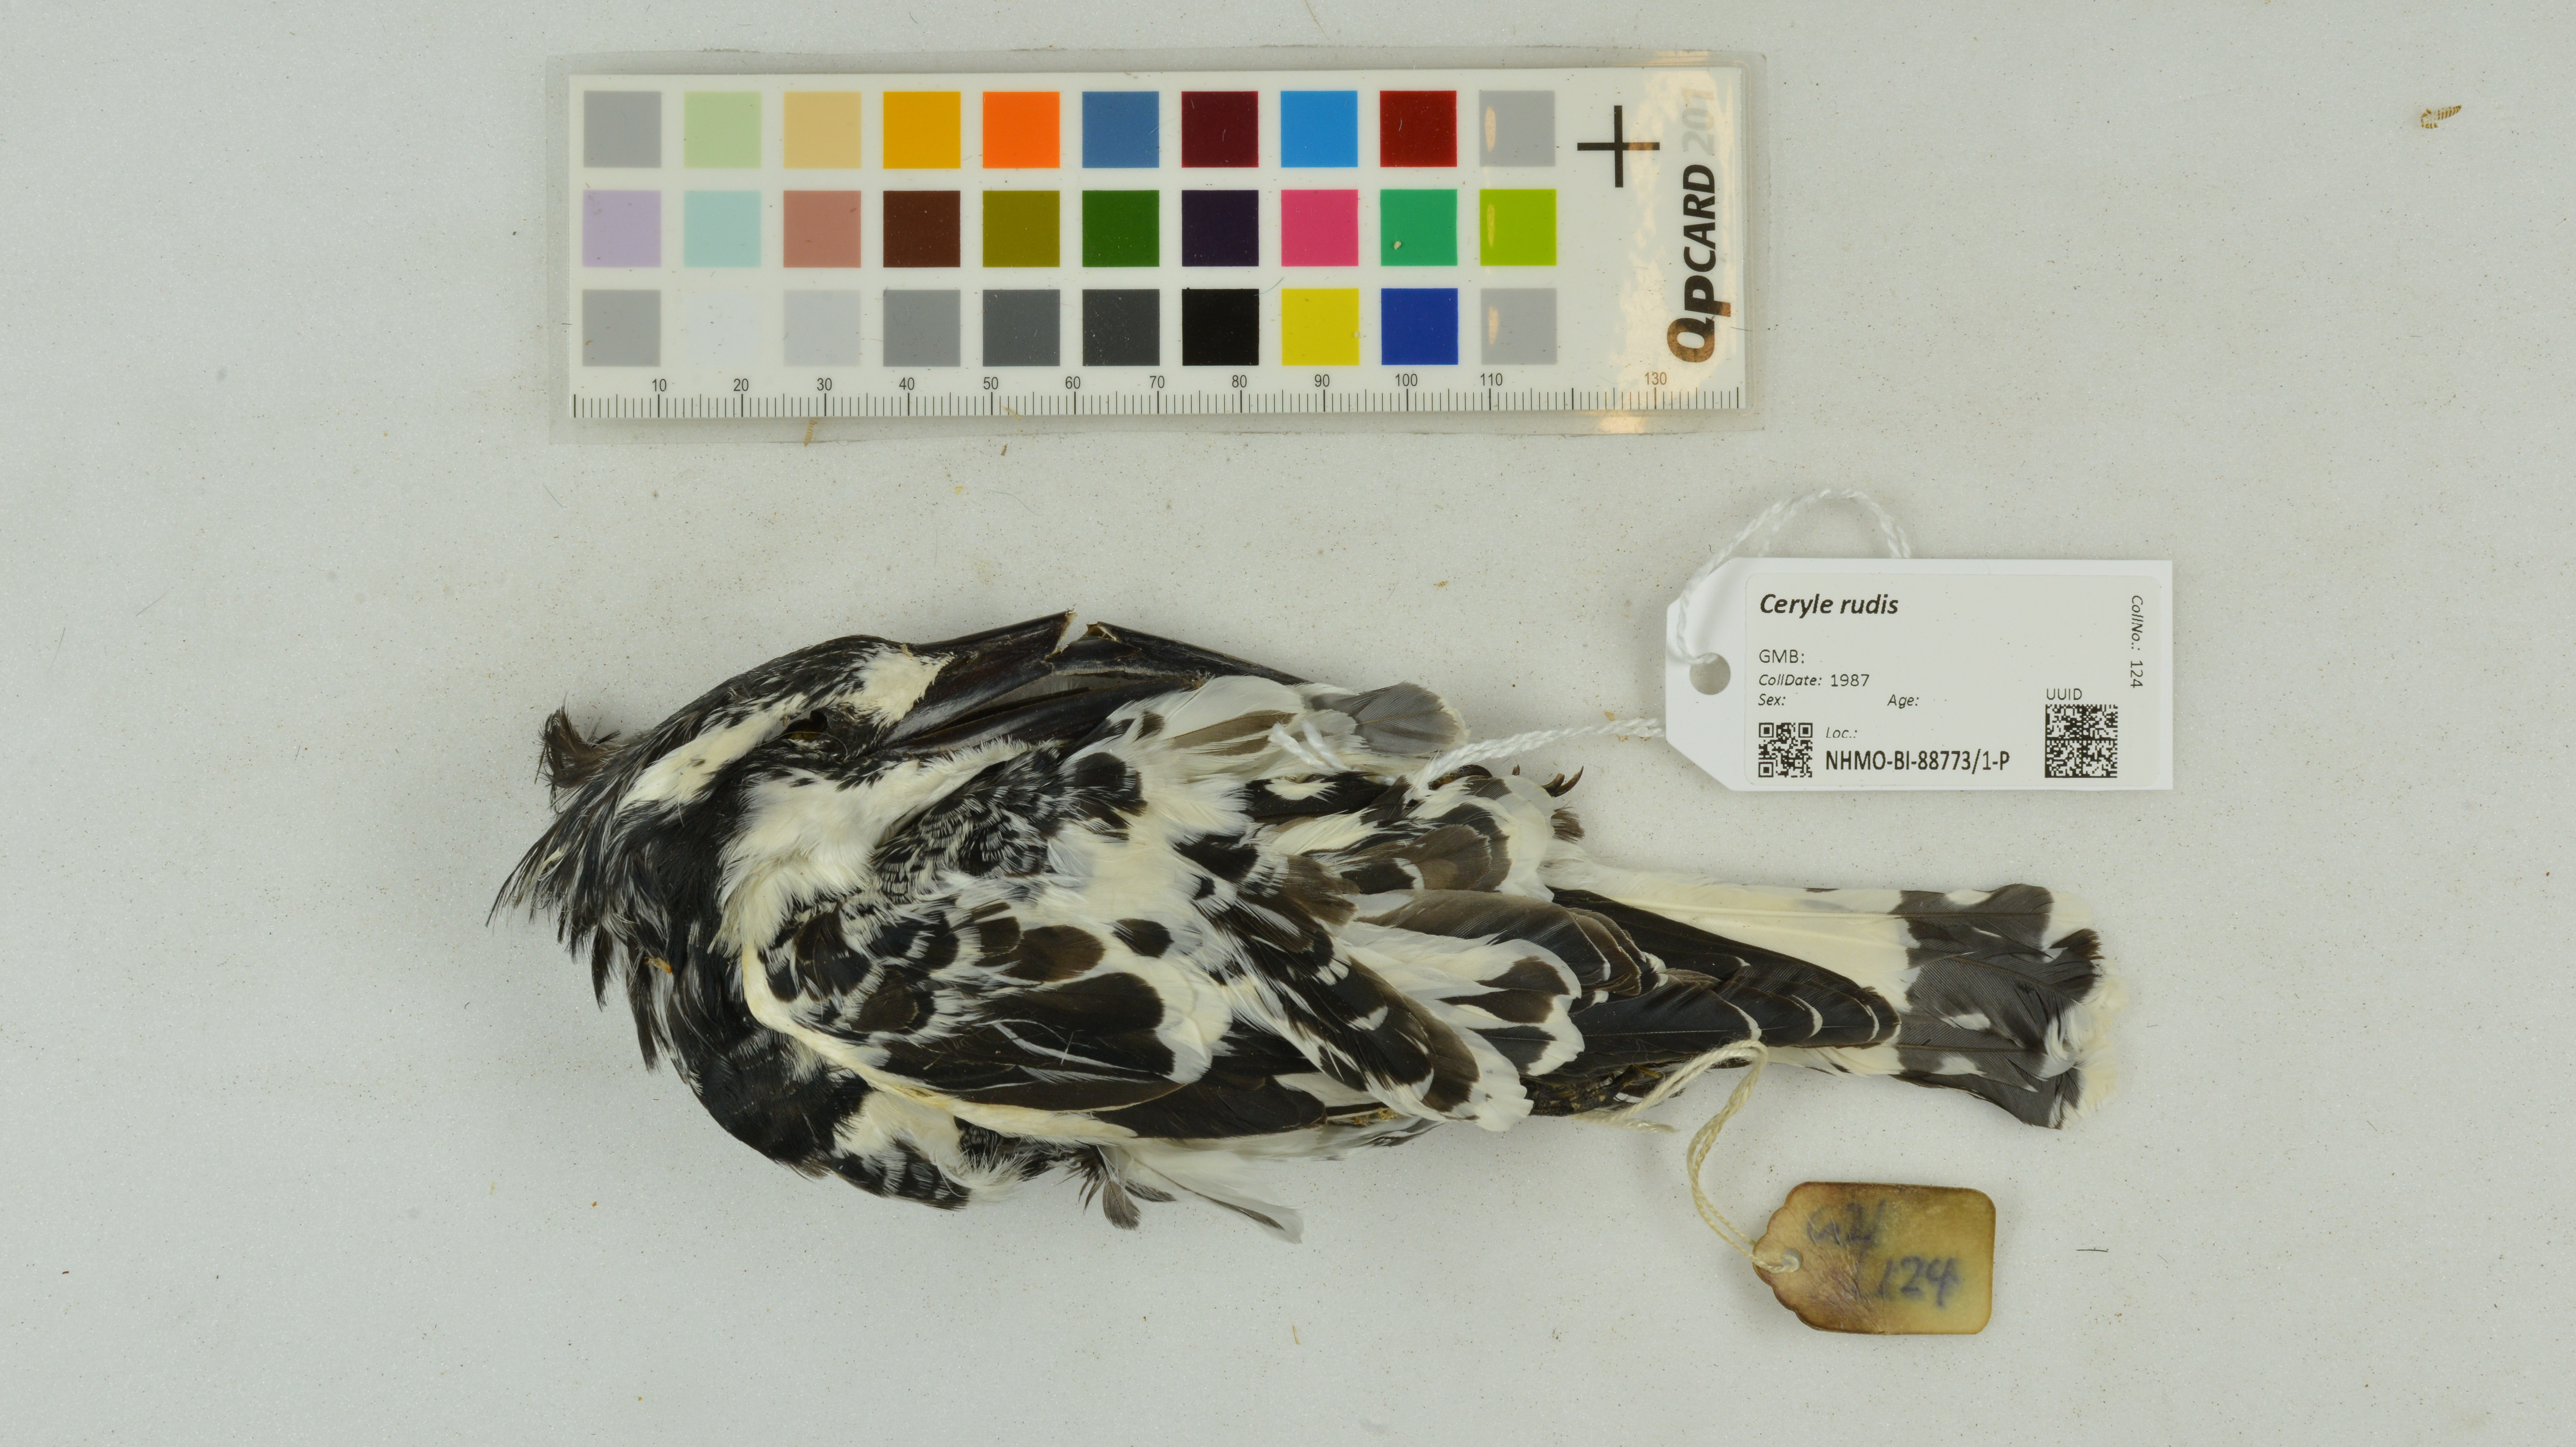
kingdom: Animalia
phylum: Chordata
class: Aves
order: Coraciiformes
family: Alcedinidae
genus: Ceryle
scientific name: Ceryle rudis
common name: Pied kingfisher
